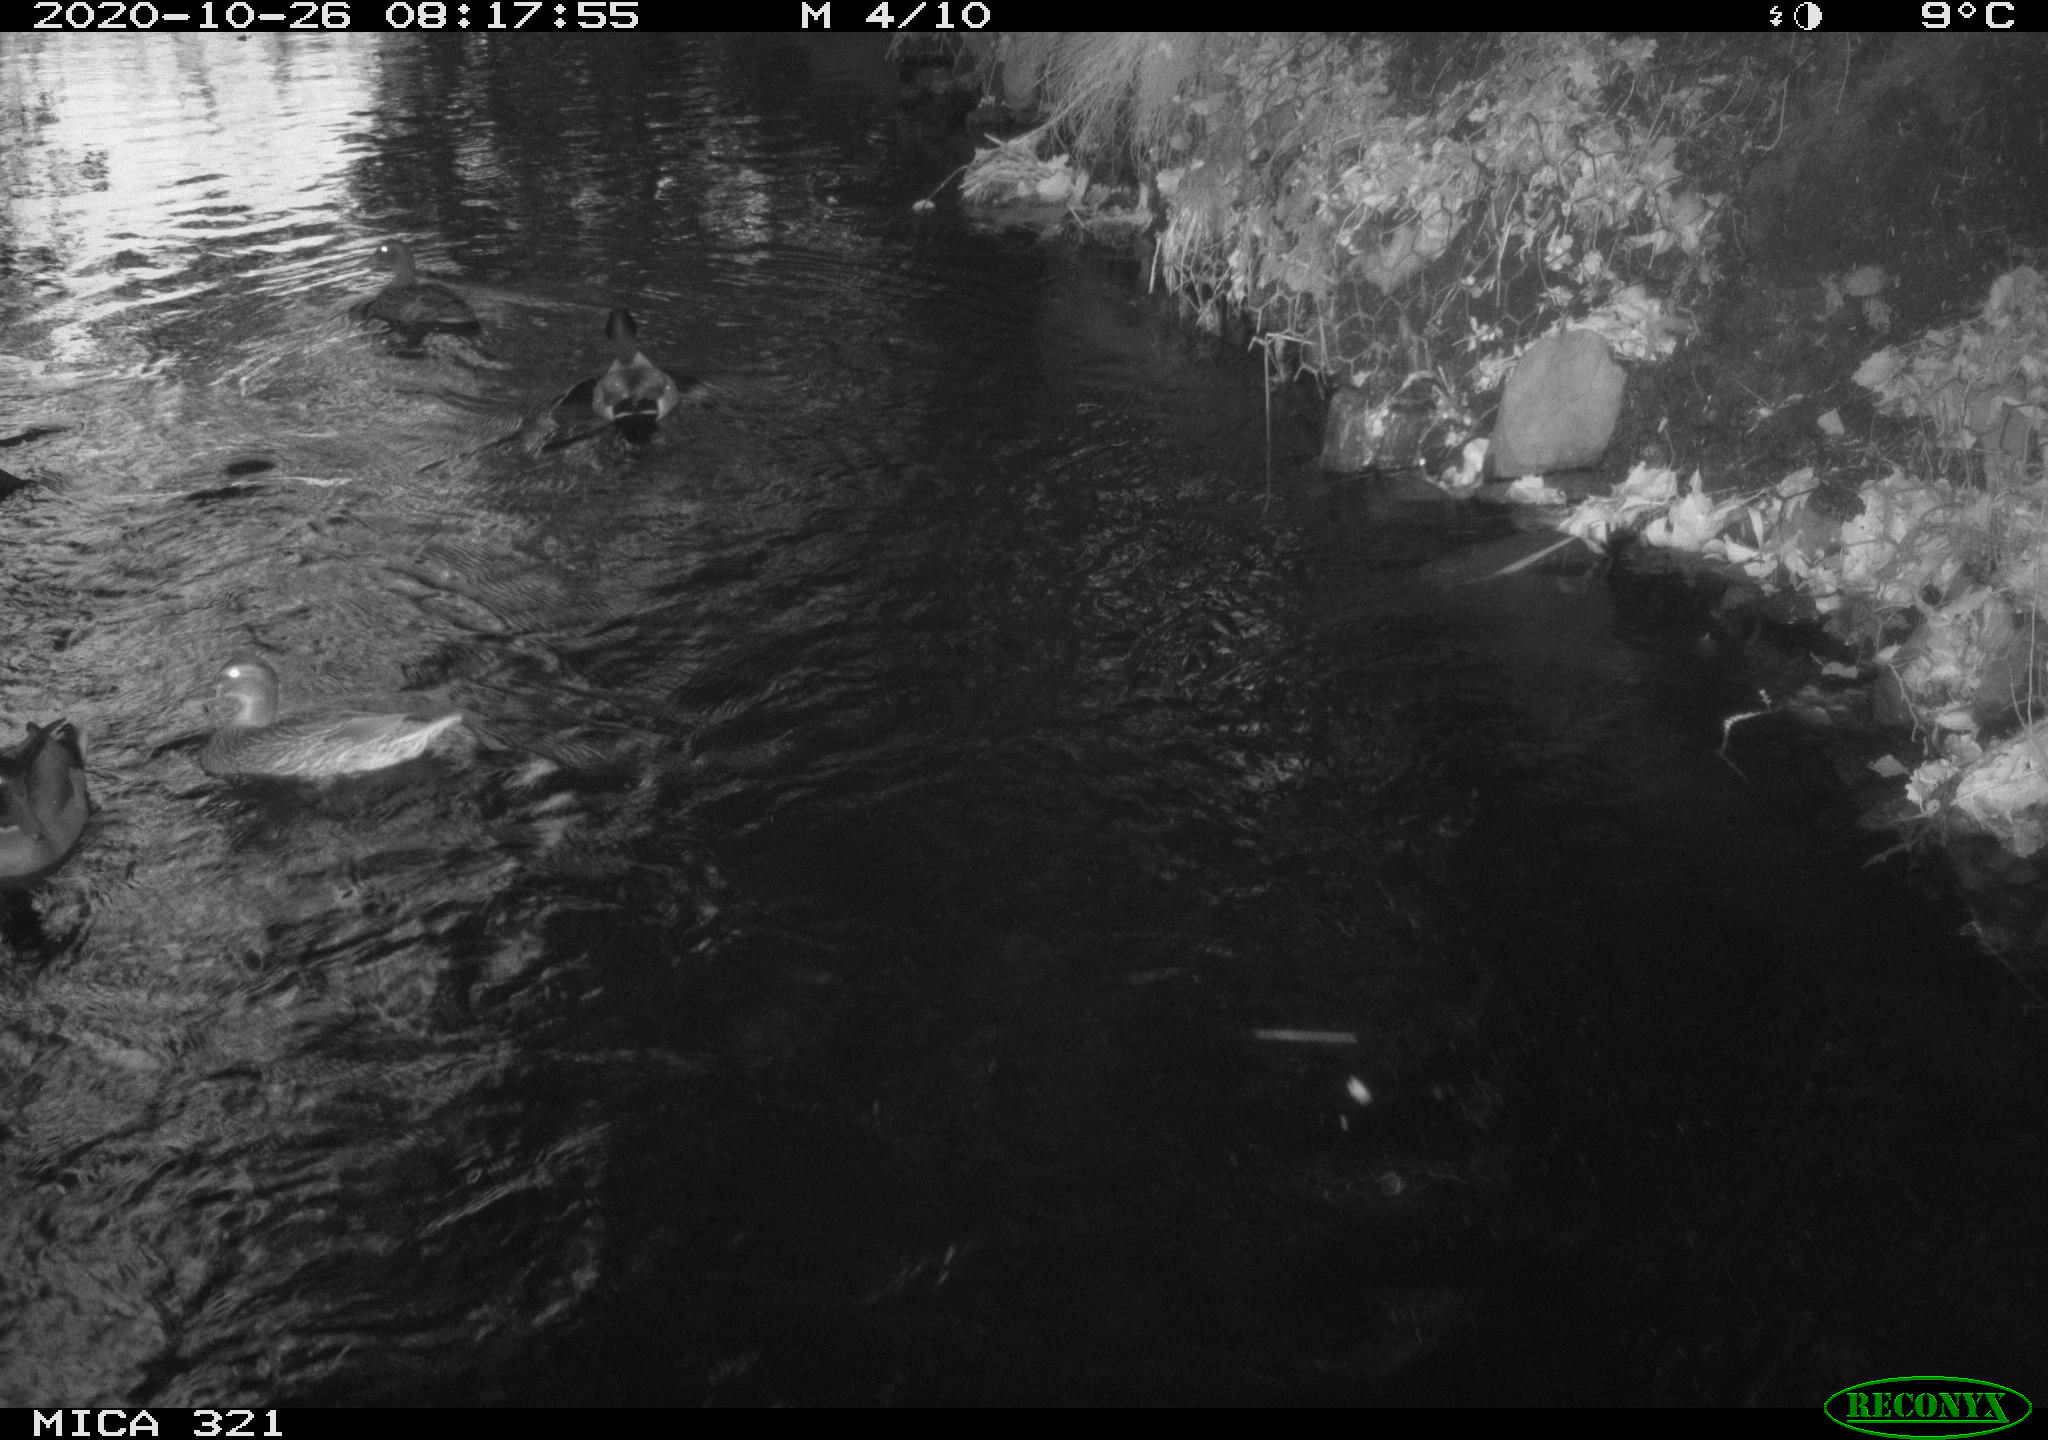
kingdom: Animalia
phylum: Chordata
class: Aves
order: Anseriformes
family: Anatidae
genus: Anas
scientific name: Anas platyrhynchos
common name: Mallard
